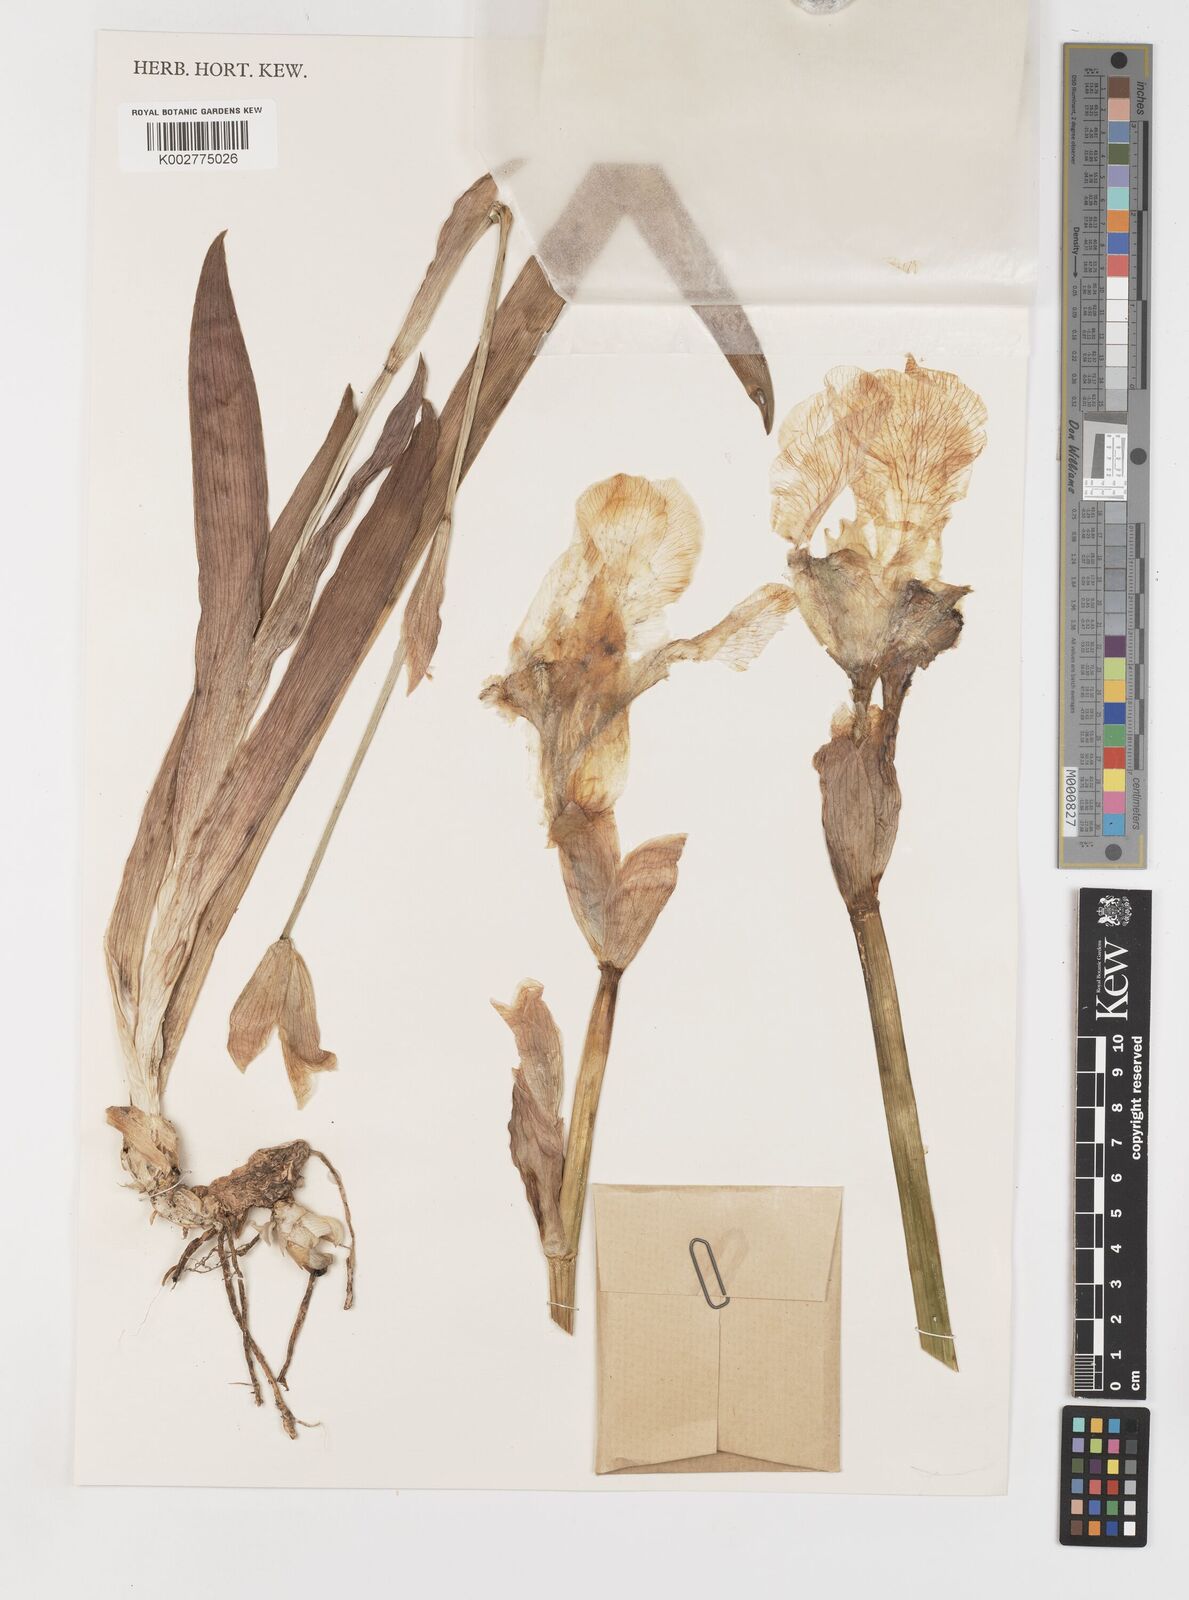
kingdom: Plantae
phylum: Tracheophyta
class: Liliopsida
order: Asparagales
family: Iridaceae
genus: Iris
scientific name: Iris florentina
